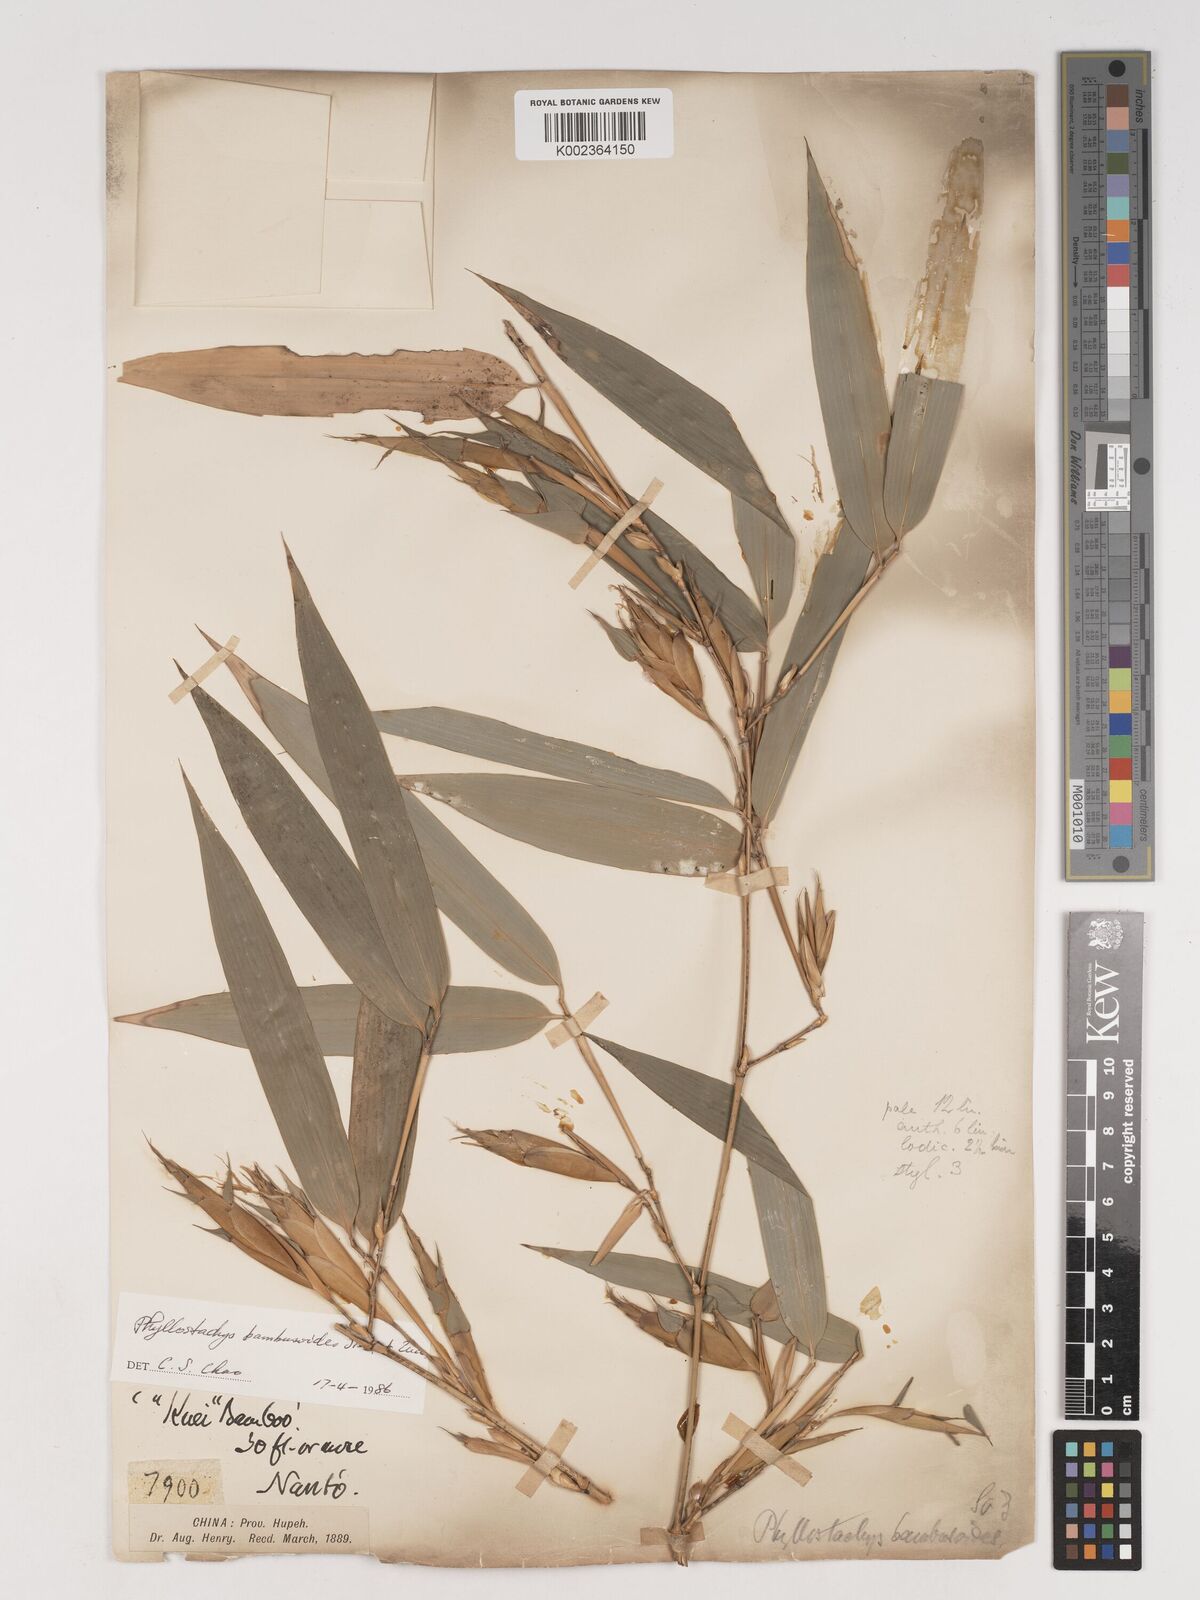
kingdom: Plantae
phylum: Tracheophyta
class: Liliopsida
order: Poales
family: Poaceae
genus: Phyllostachys
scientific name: Phyllostachys reticulata
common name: Bamboo
